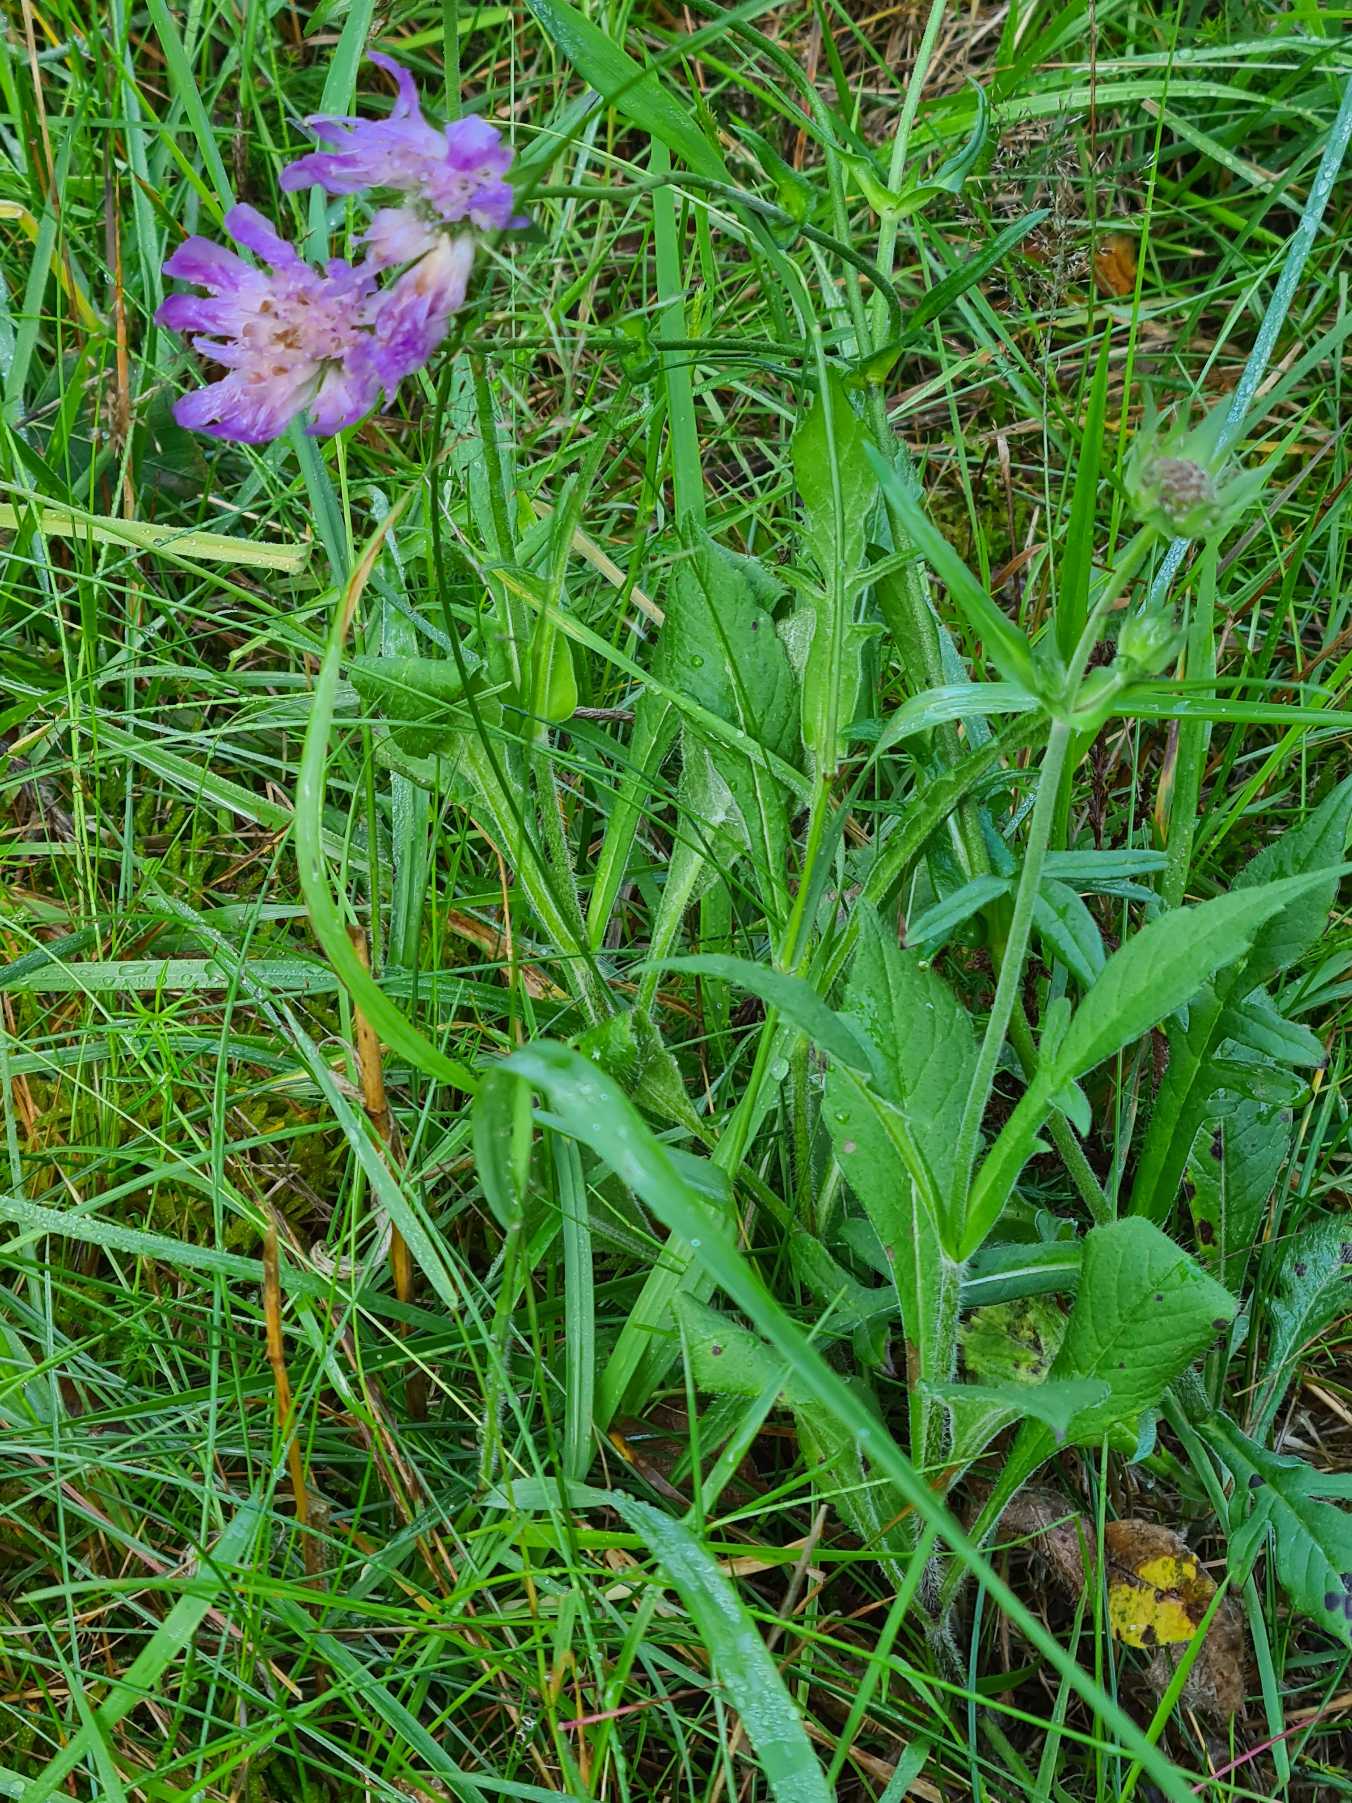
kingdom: Plantae
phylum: Tracheophyta
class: Magnoliopsida
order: Dipsacales
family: Caprifoliaceae
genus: Knautia
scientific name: Knautia arvensis
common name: Blåhat
